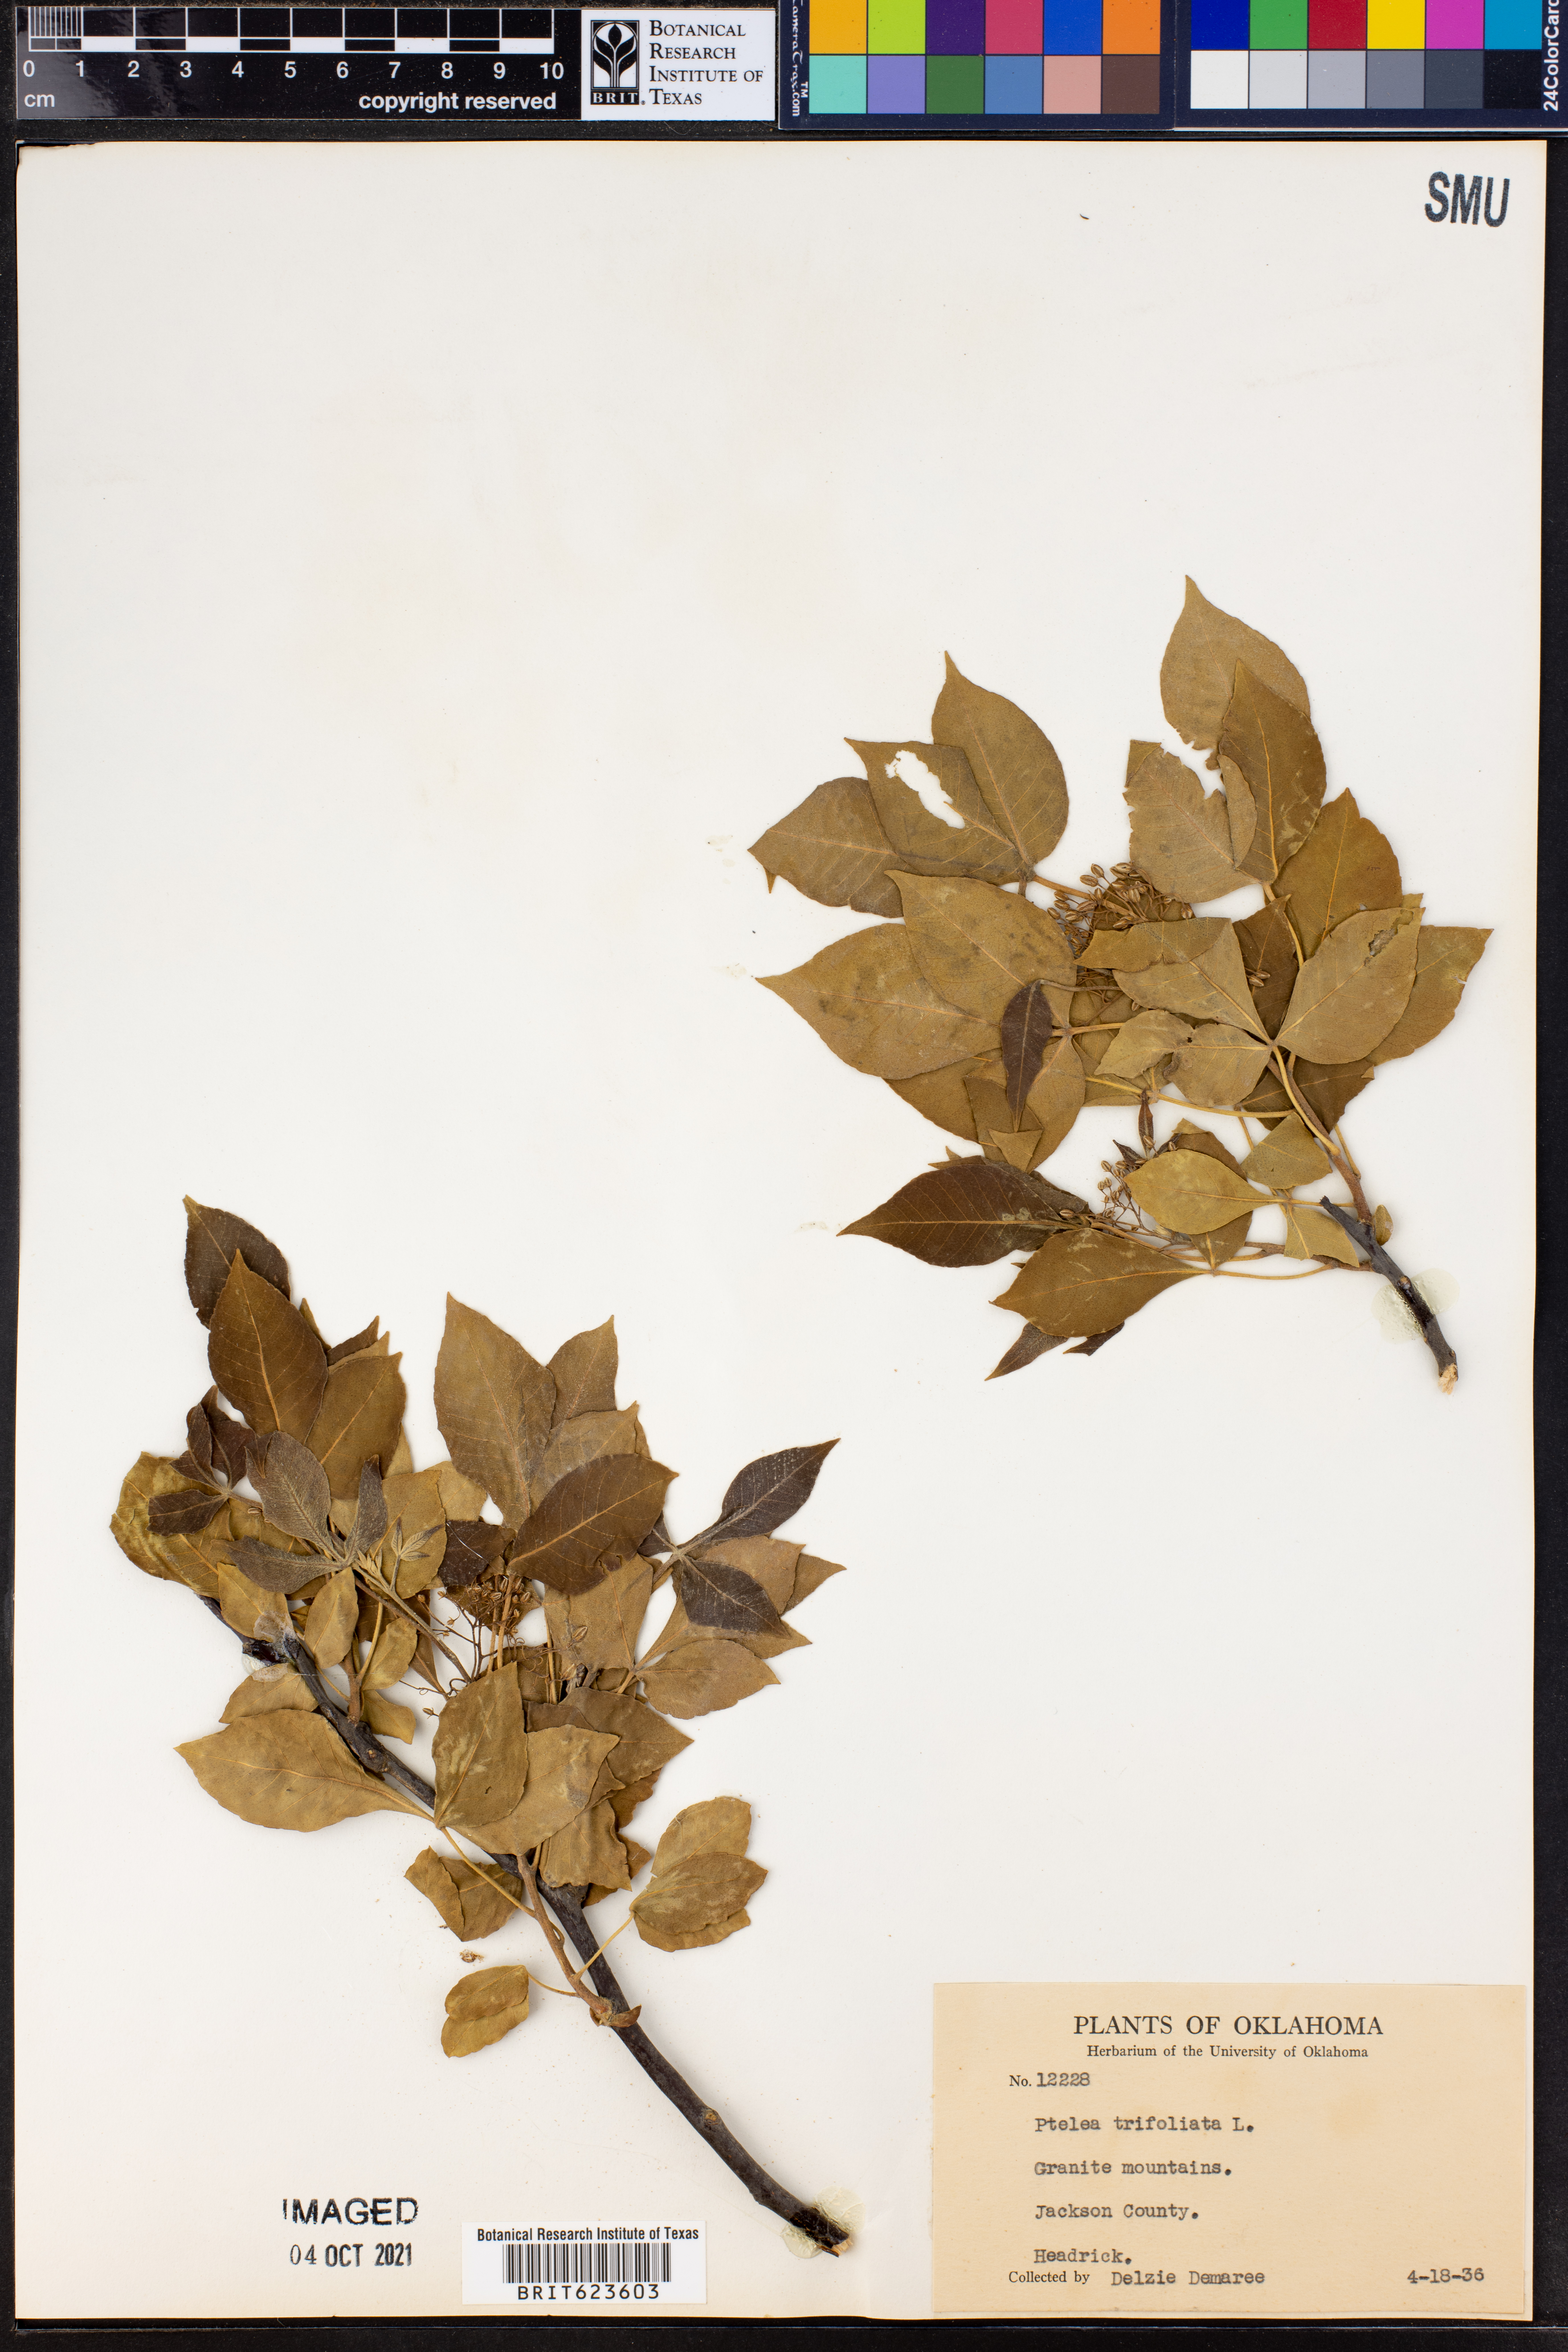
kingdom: Plantae
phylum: Tracheophyta
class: Magnoliopsida
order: Sapindales
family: Rutaceae
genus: Ptelea
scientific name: Ptelea trifoliata
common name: Common hop-tree
